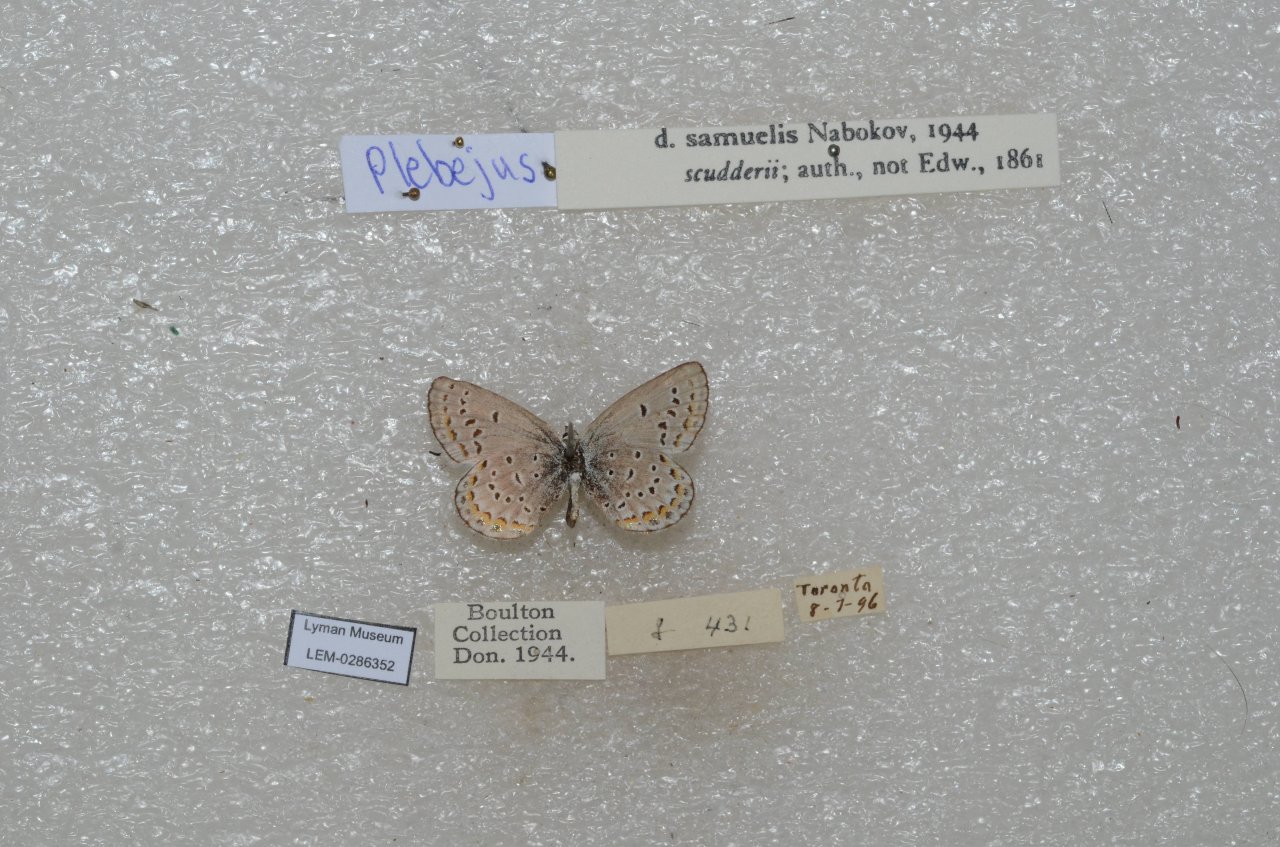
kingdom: Animalia
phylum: Arthropoda
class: Insecta
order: Lepidoptera
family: Lycaenidae
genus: Plebejus
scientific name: Plebejus samuelis
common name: Karner Blue
